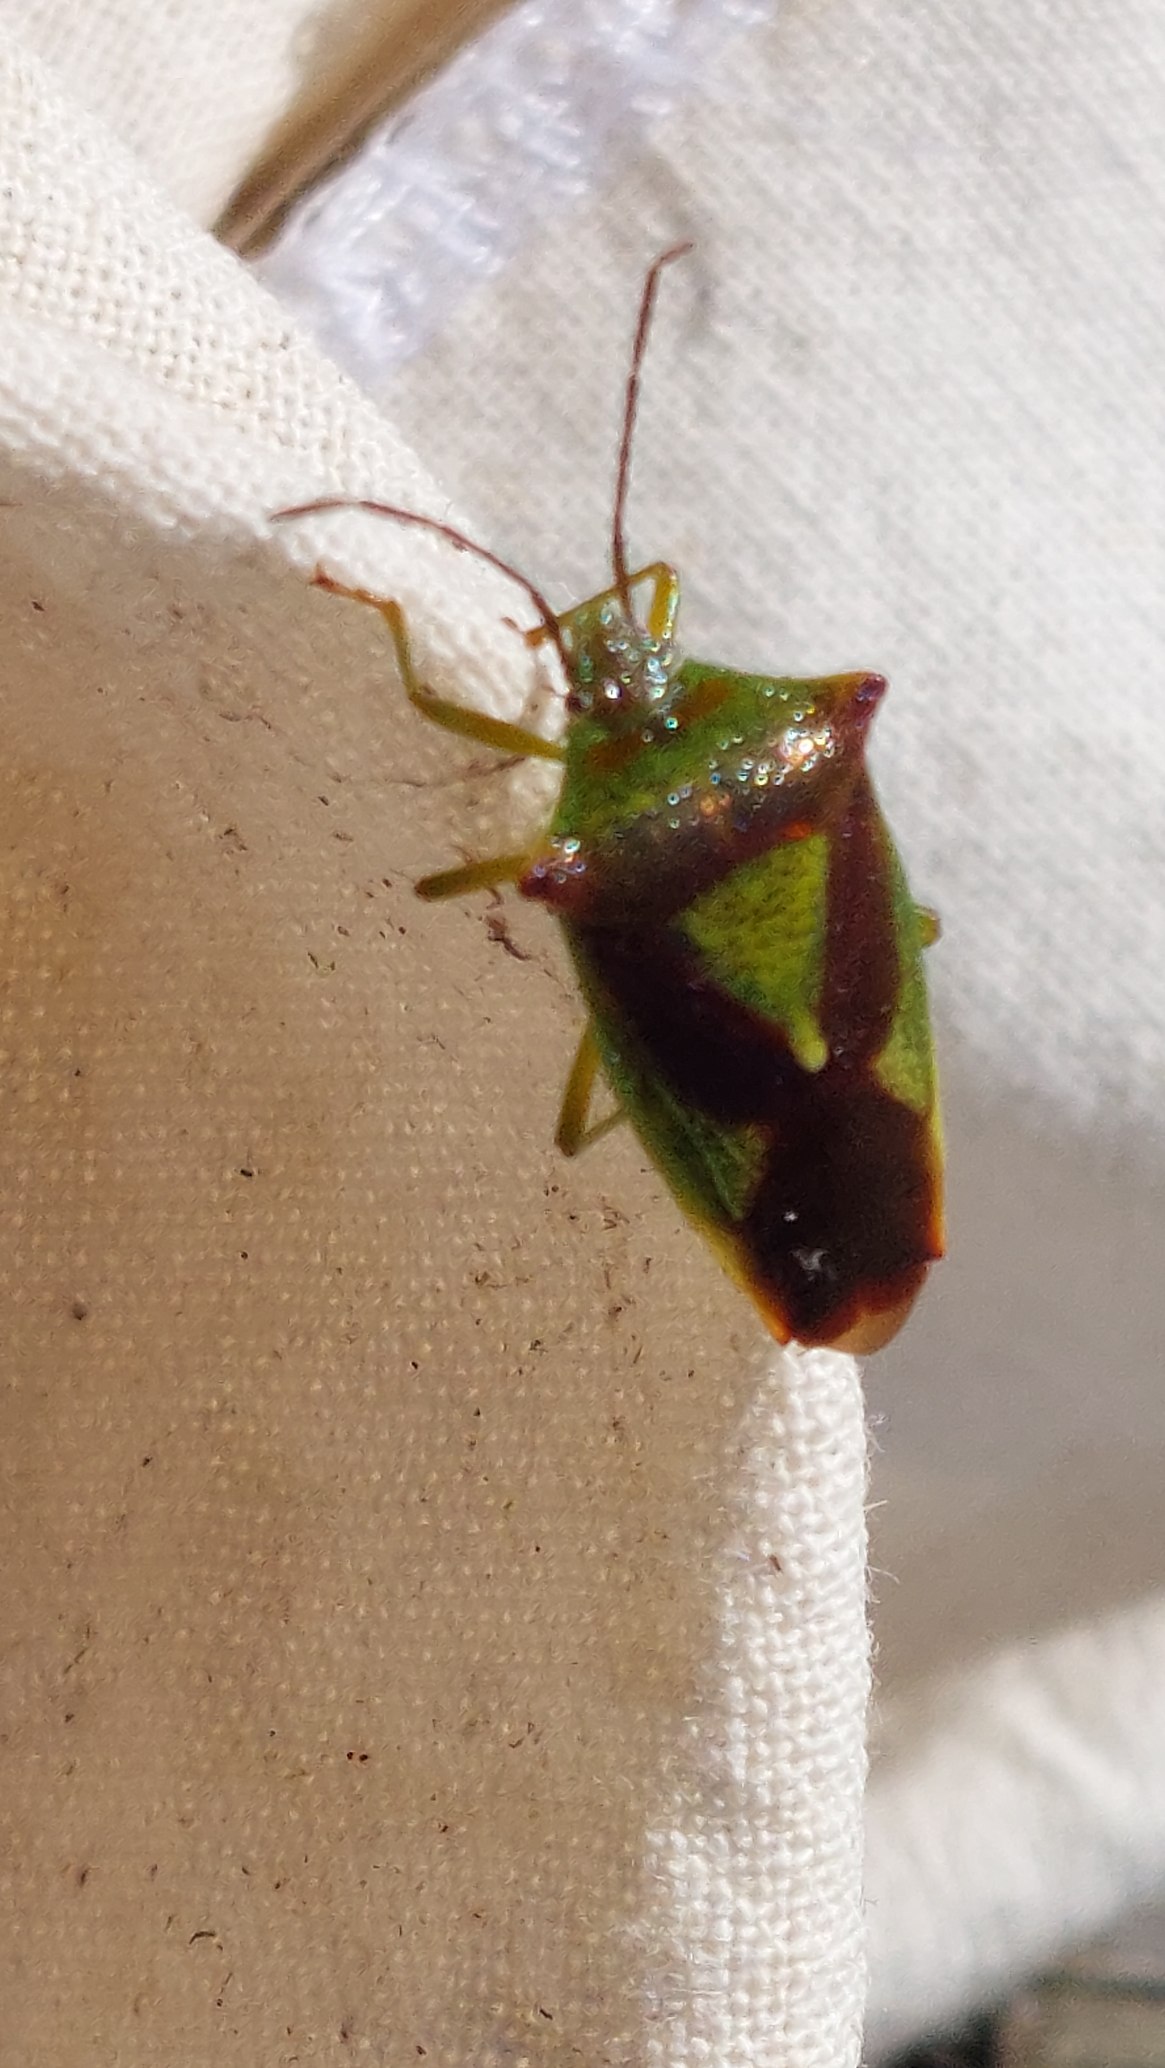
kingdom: Animalia
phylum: Arthropoda
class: Insecta
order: Hemiptera
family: Acanthosomatidae
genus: Acanthosoma
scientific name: Acanthosoma haemorrhoidale
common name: Stor løvtæge
